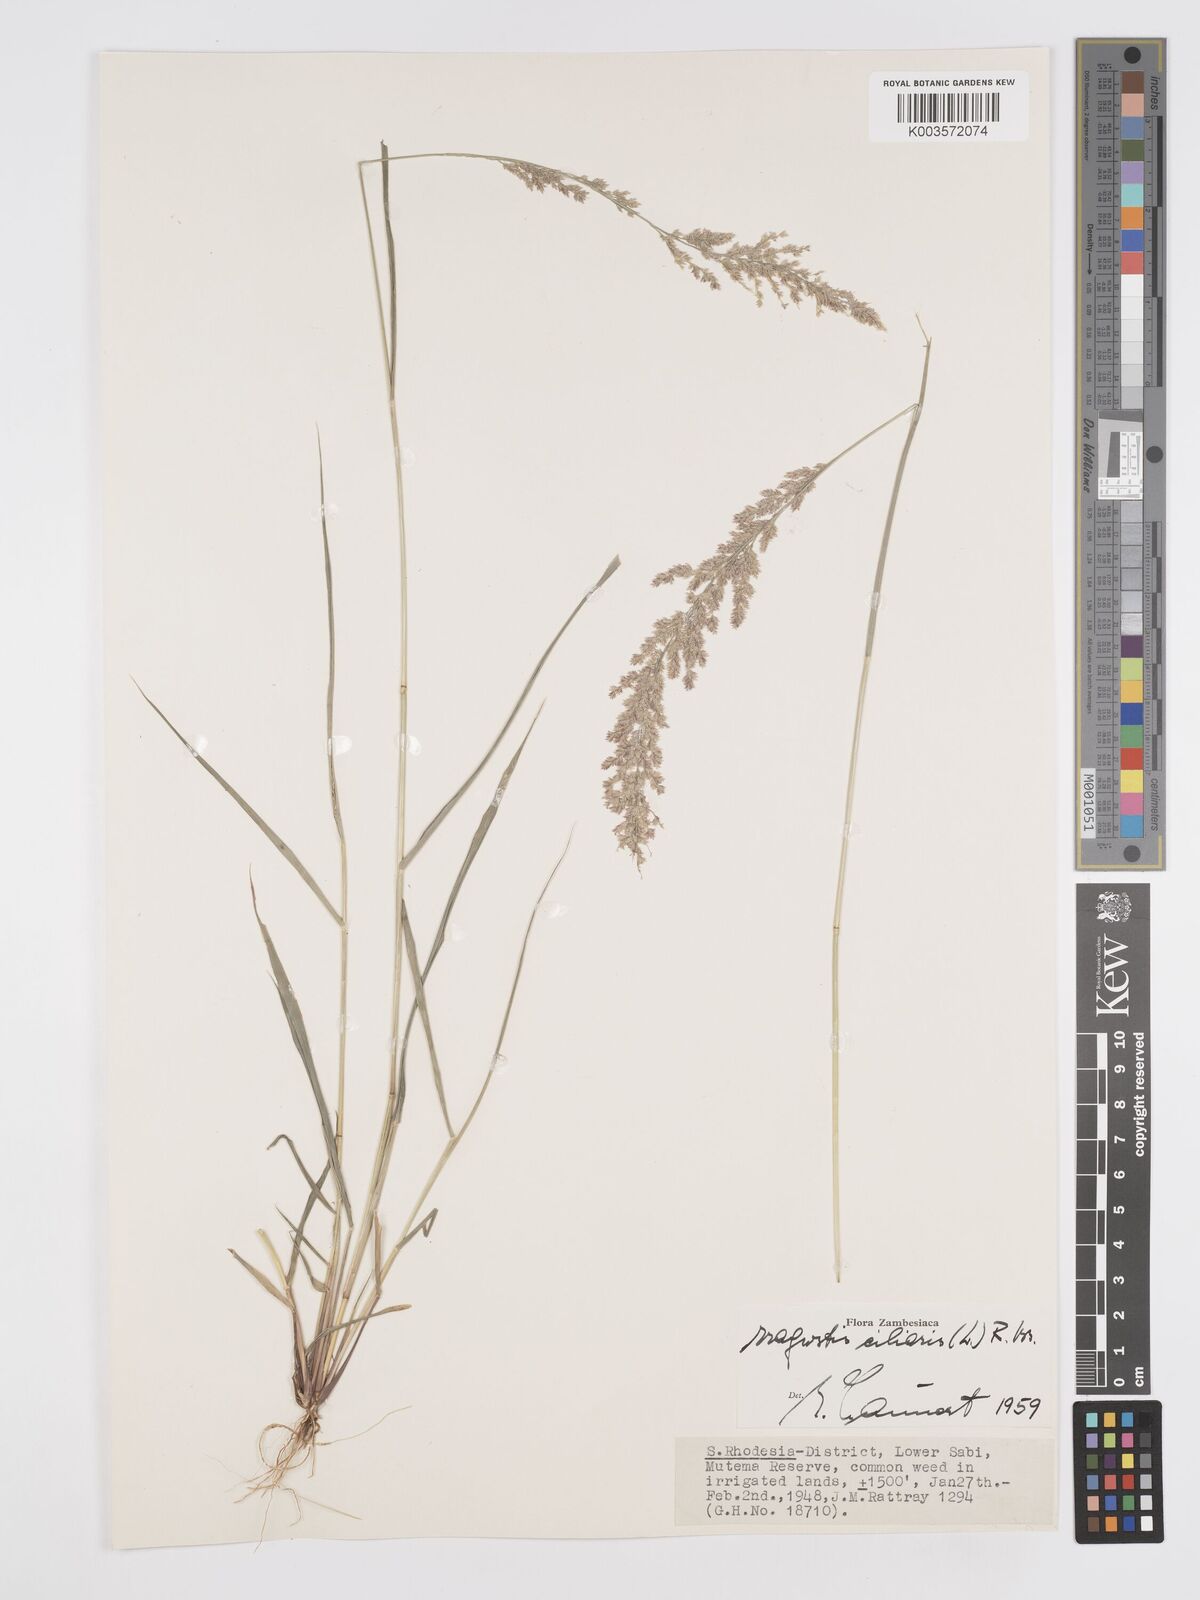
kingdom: Plantae
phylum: Tracheophyta
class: Liliopsida
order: Poales
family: Poaceae
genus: Eragrostis
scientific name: Eragrostis ciliaris
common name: Gophertail lovegrass
